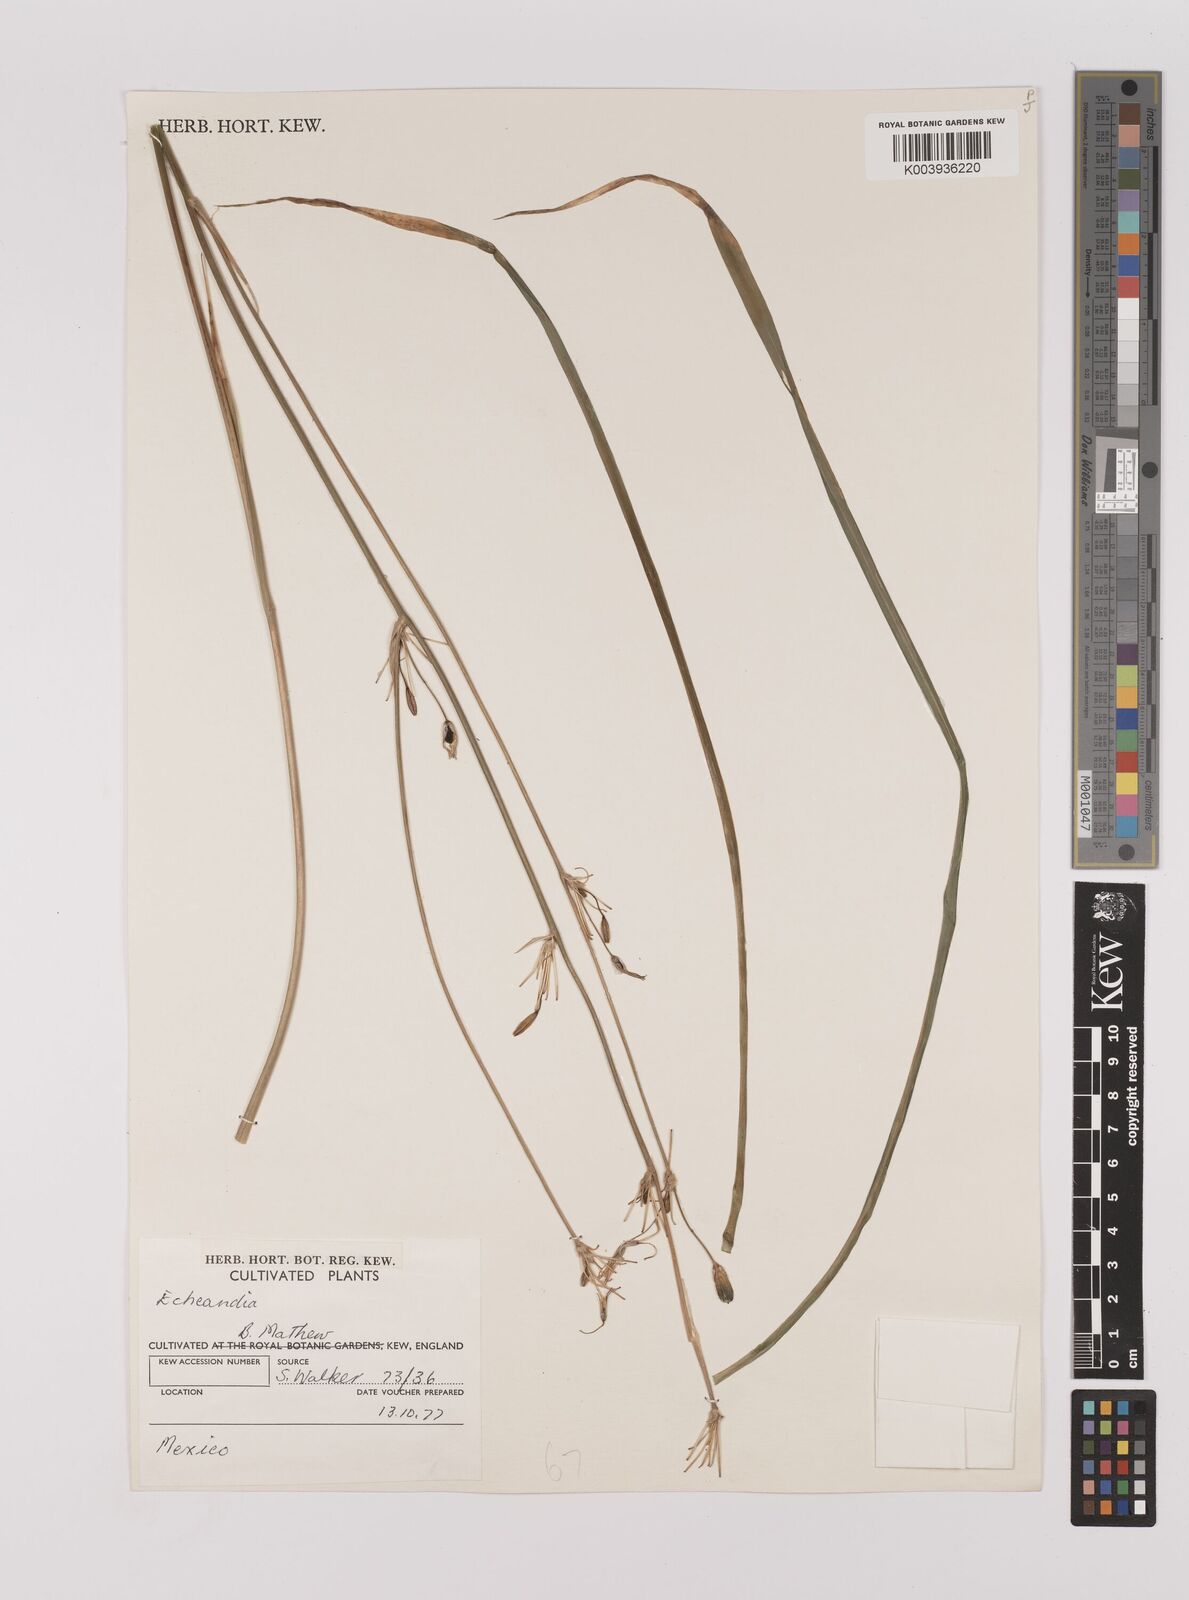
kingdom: Plantae
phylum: Tracheophyta
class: Liliopsida
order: Asparagales
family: Asparagaceae
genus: Echeandia
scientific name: Echeandia
